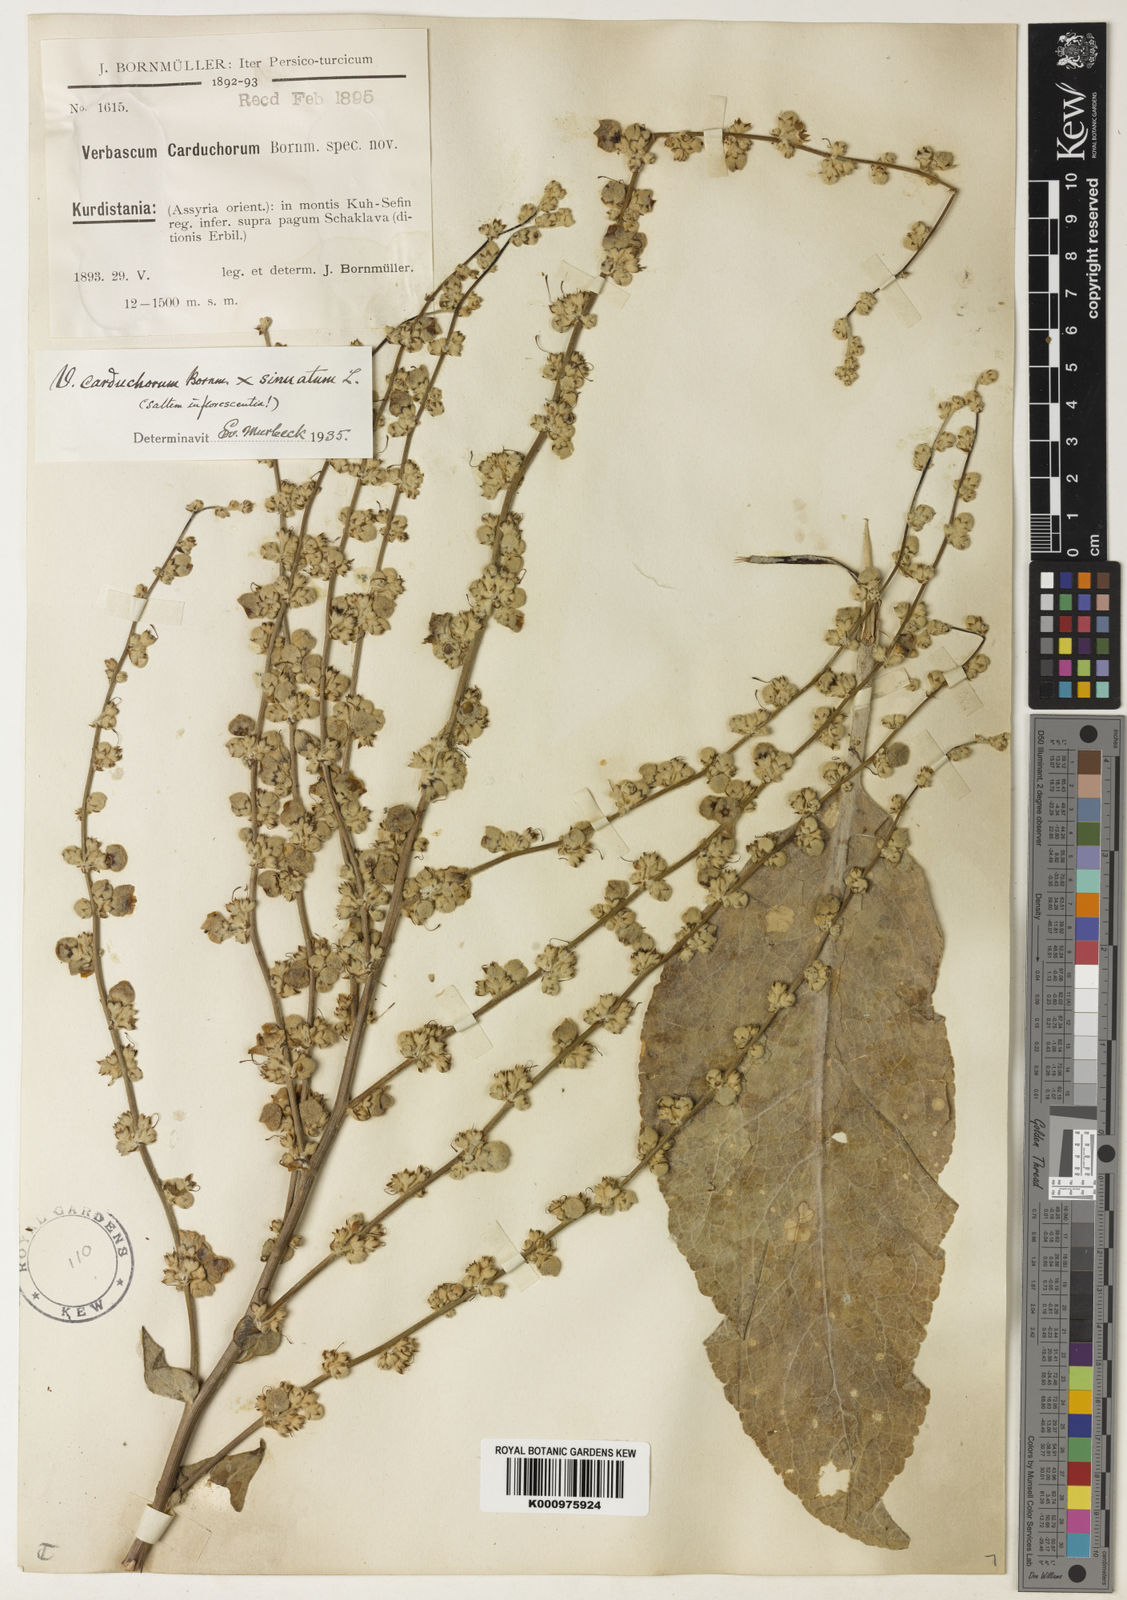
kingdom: Plantae
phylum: Tracheophyta
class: Magnoliopsida
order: Lamiales
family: Scrophulariaceae
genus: Verbascum
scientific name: Verbascum carduchorum
